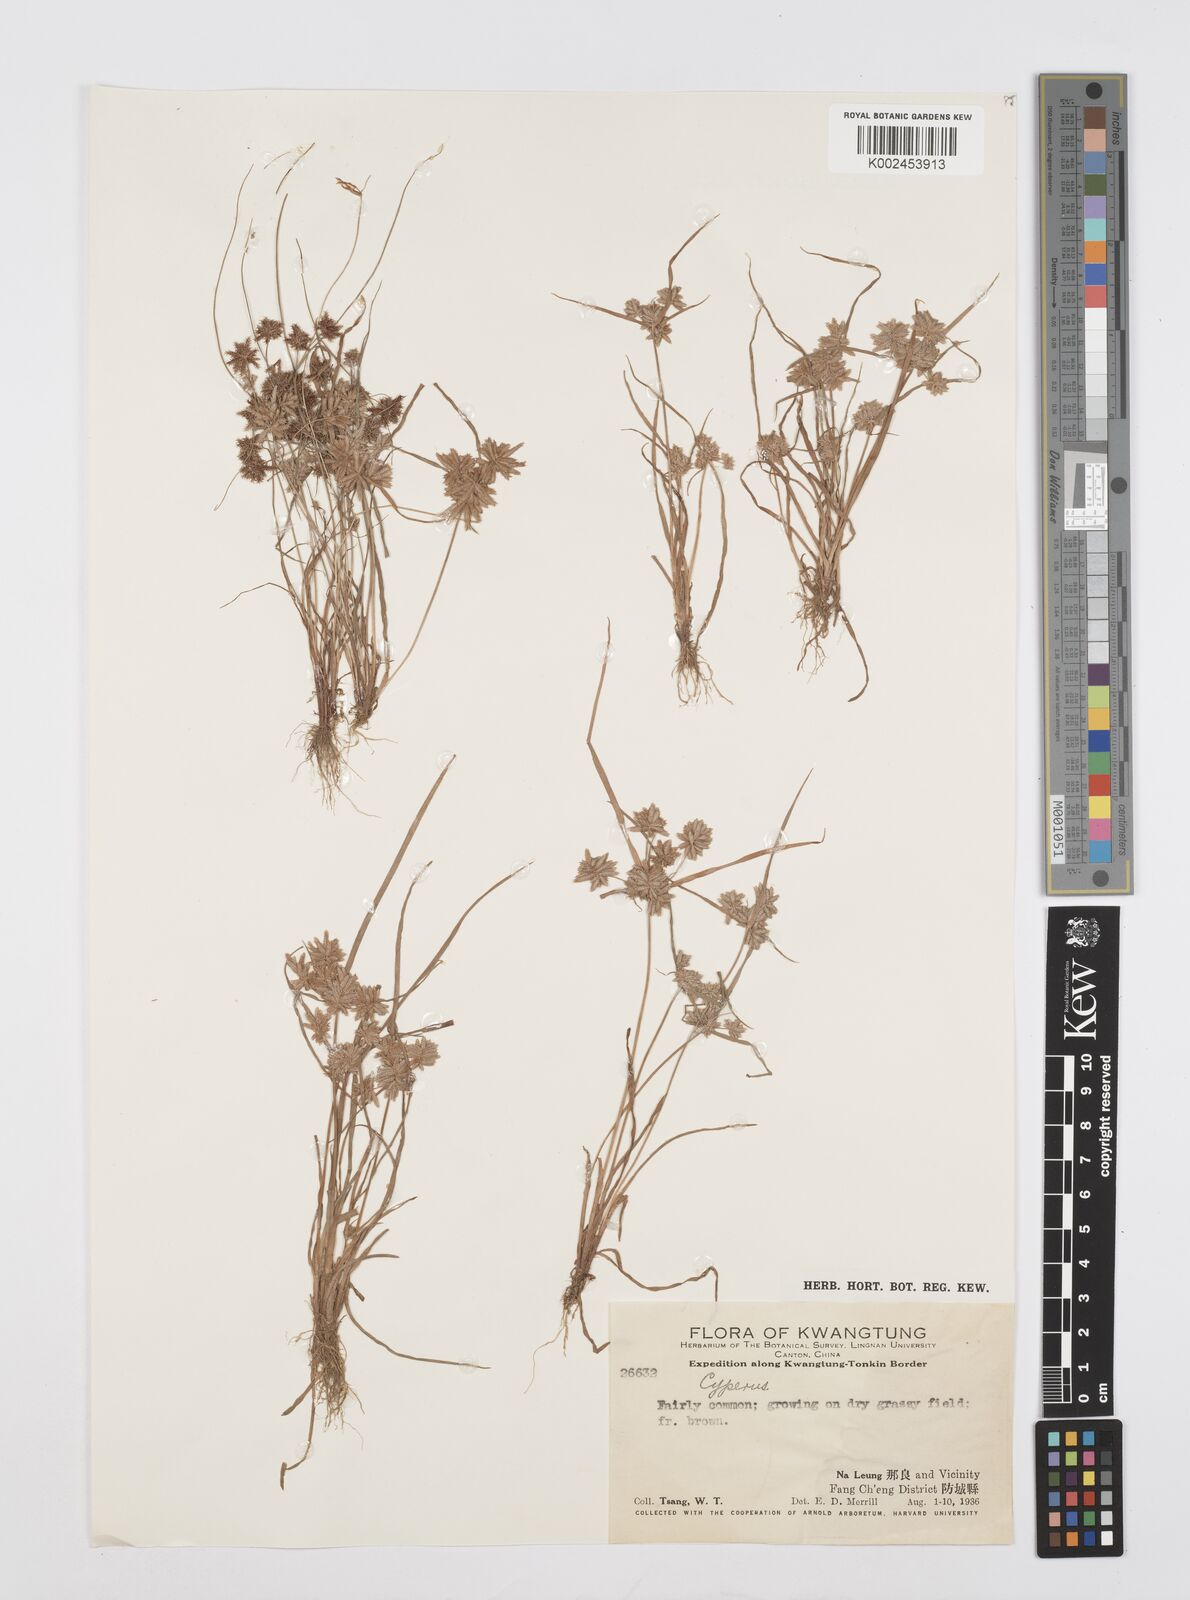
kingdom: Plantae
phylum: Tracheophyta
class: Liliopsida
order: Poales
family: Cyperaceae
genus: Cyperus
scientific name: Cyperus pumilus
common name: Low flatsedge
